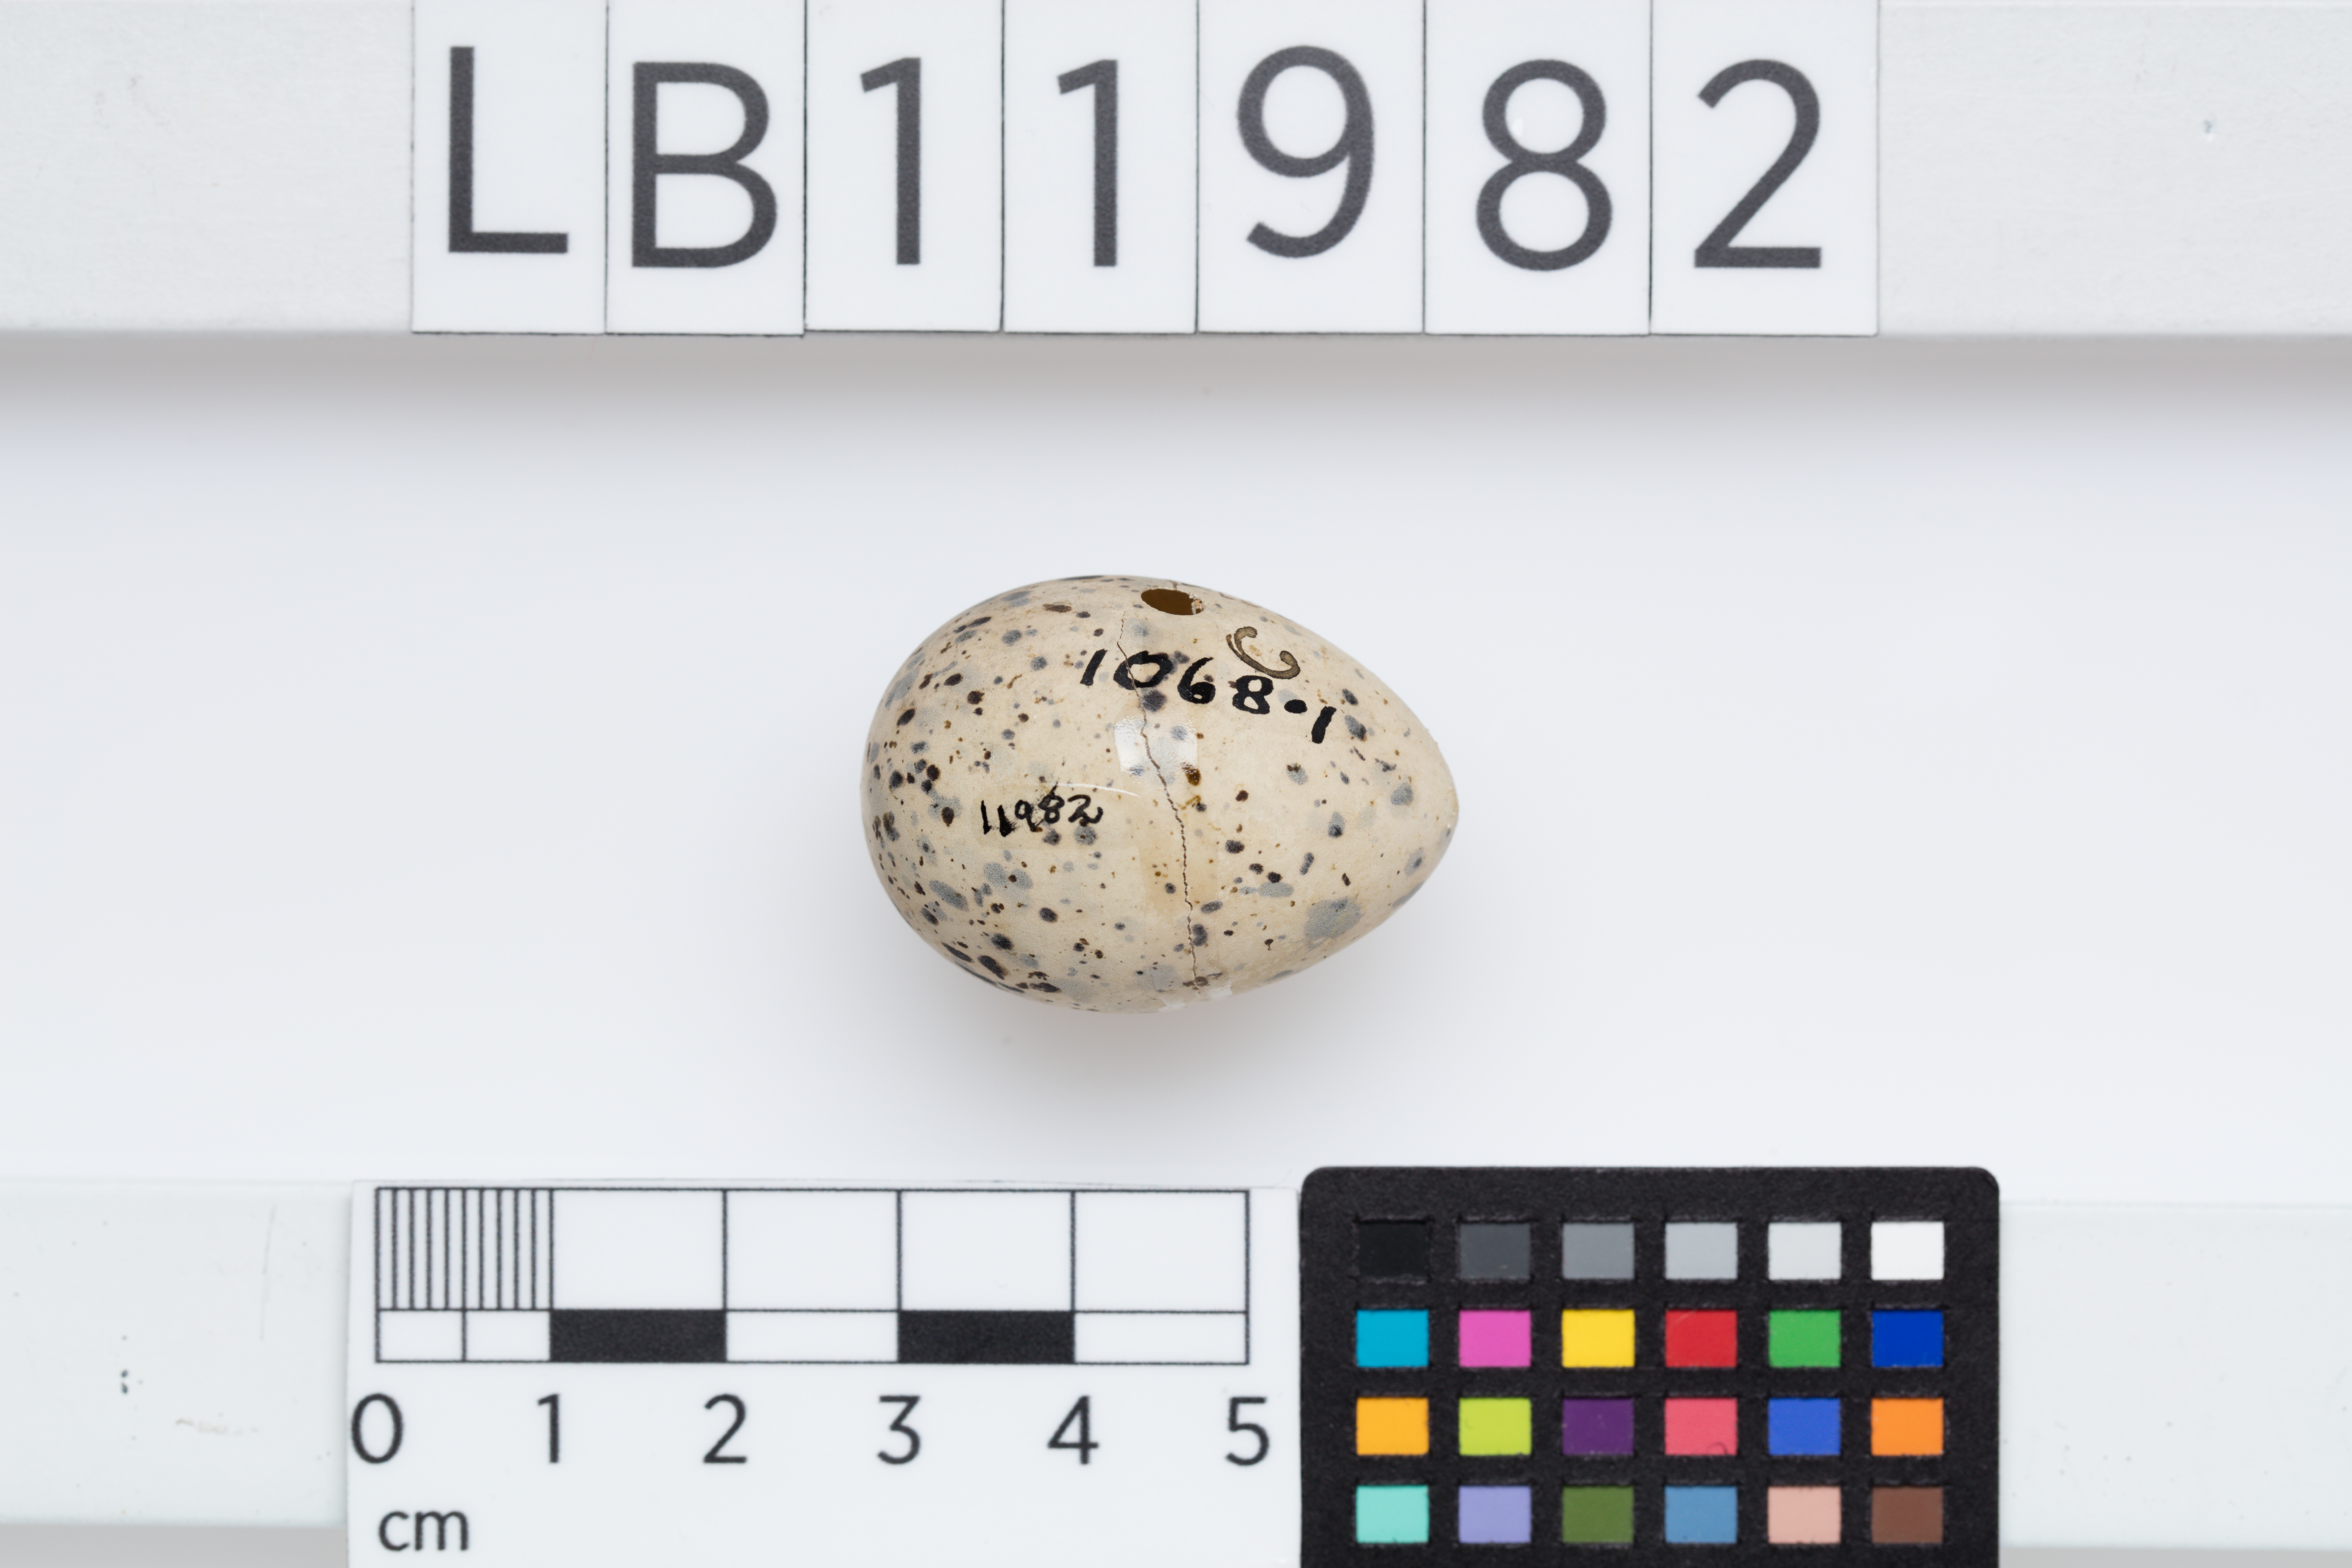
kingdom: Animalia
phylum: Chordata
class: Aves
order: Charadriiformes
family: Charadriidae
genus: Charadrius
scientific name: Charadrius alexandrinus
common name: Kentish plover
